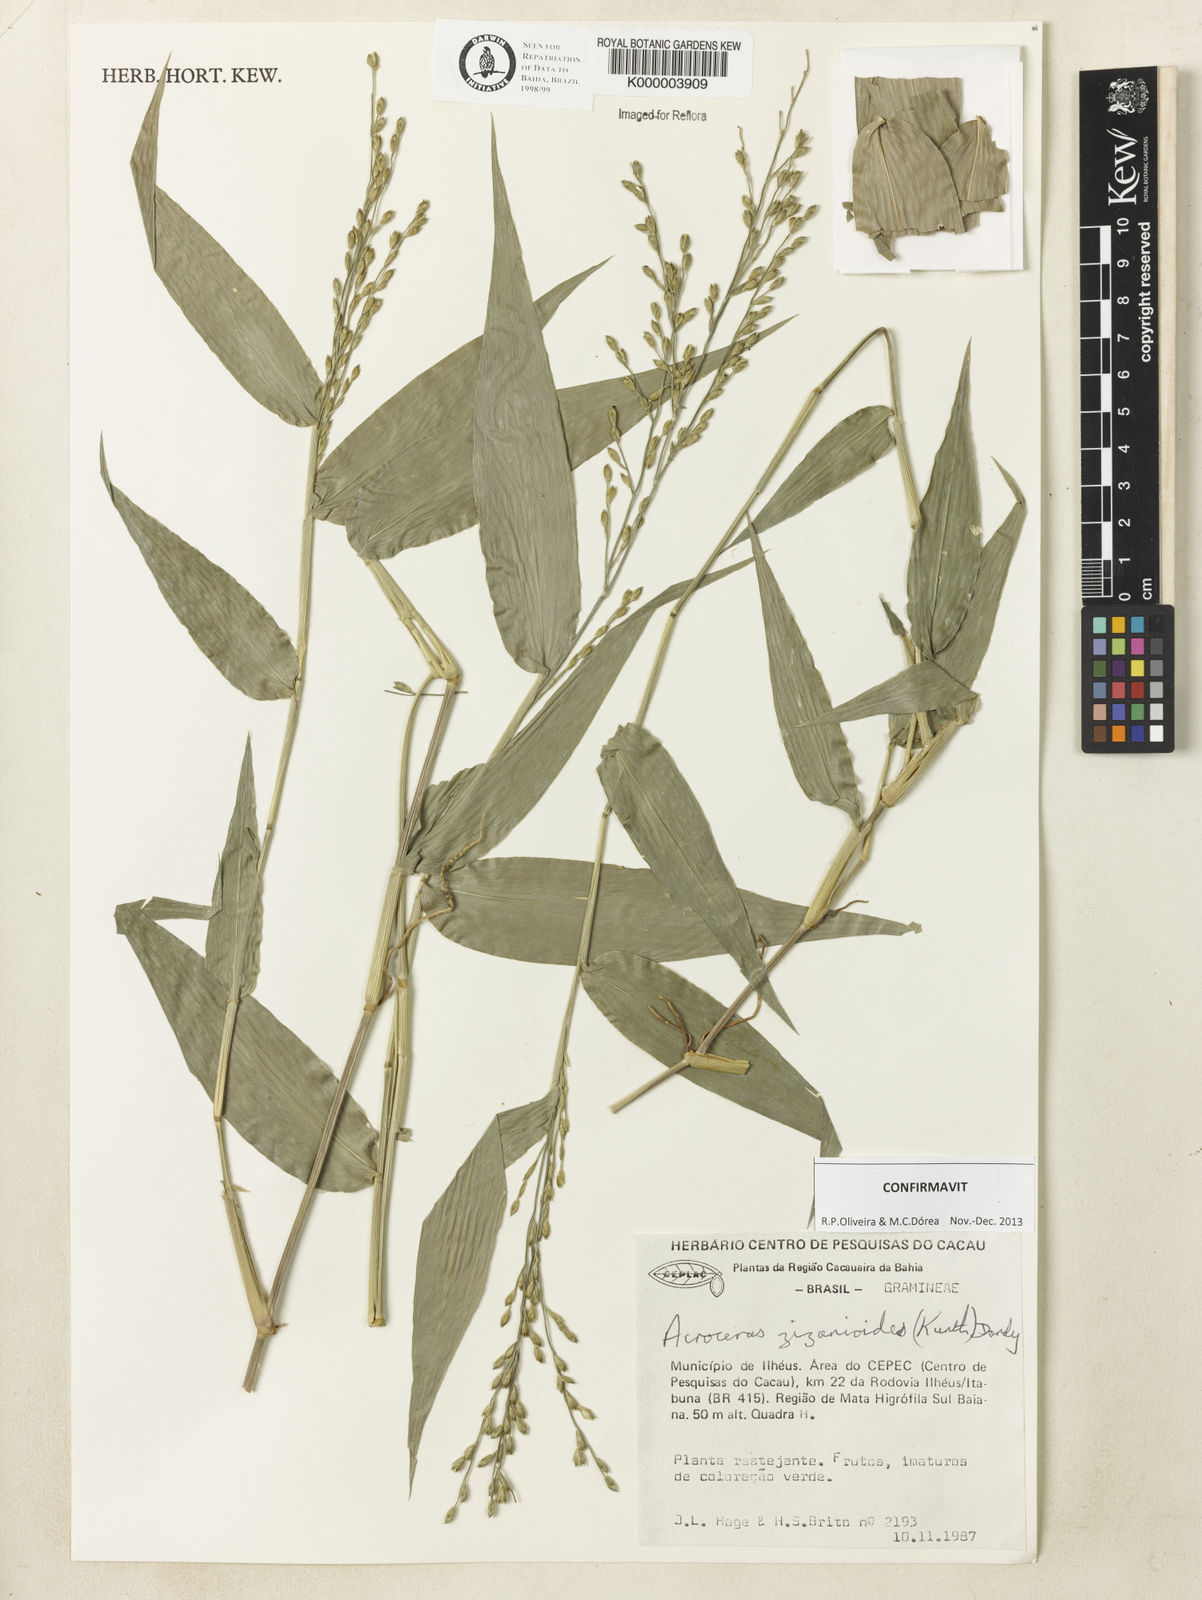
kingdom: Plantae
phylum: Tracheophyta
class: Liliopsida
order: Poales
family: Poaceae
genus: Acroceras
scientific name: Acroceras zizanioides
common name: Oat grass
